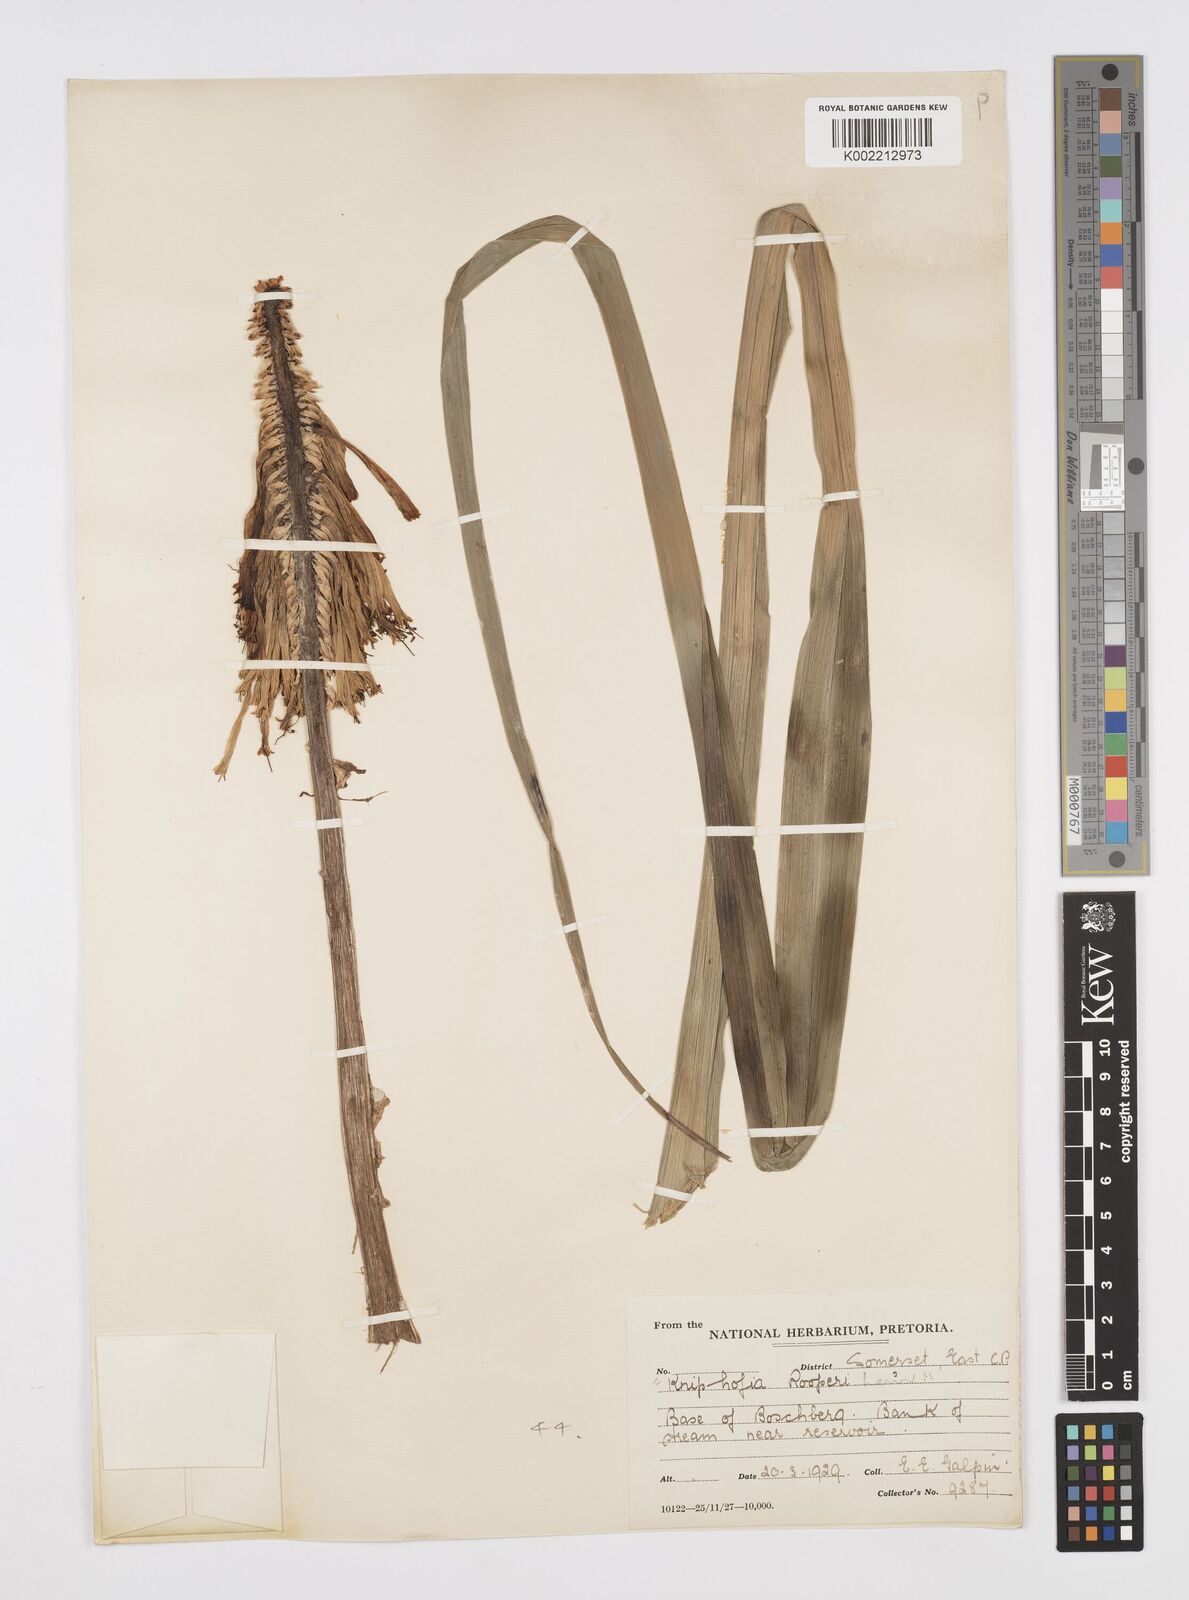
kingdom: Plantae
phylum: Tracheophyta
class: Liliopsida
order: Asparagales
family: Asphodelaceae
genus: Kniphofia
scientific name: Kniphofia linearifolia
